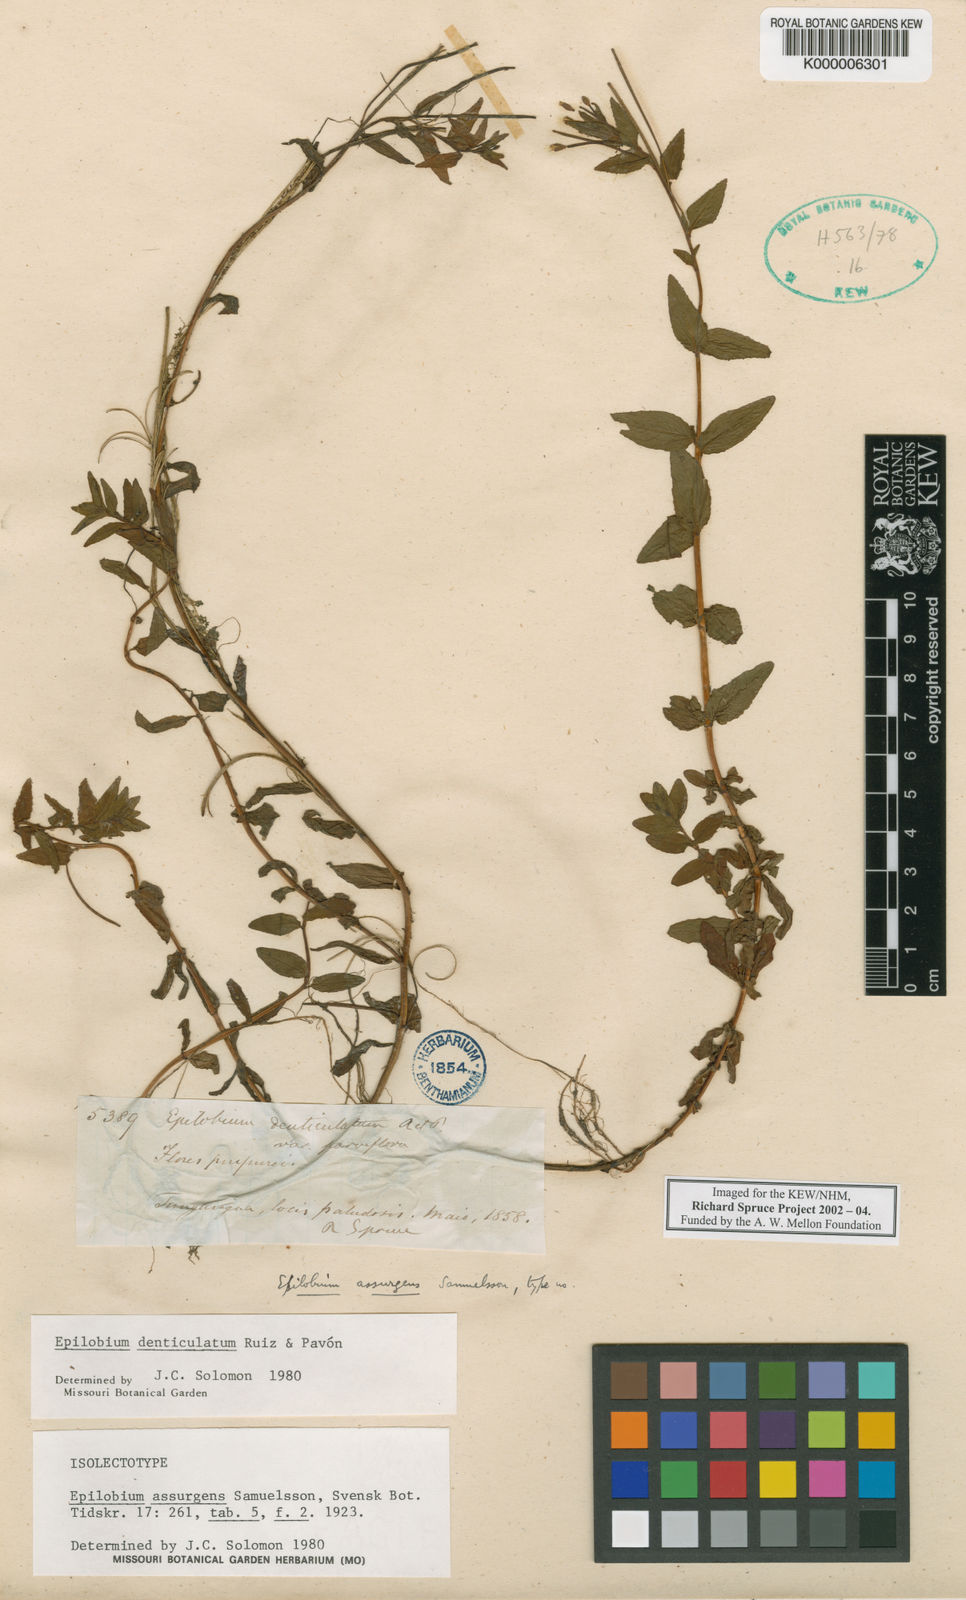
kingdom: Plantae
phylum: Tracheophyta
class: Magnoliopsida
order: Myrtales
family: Onagraceae
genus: Epilobium
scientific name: Epilobium denticulatum
